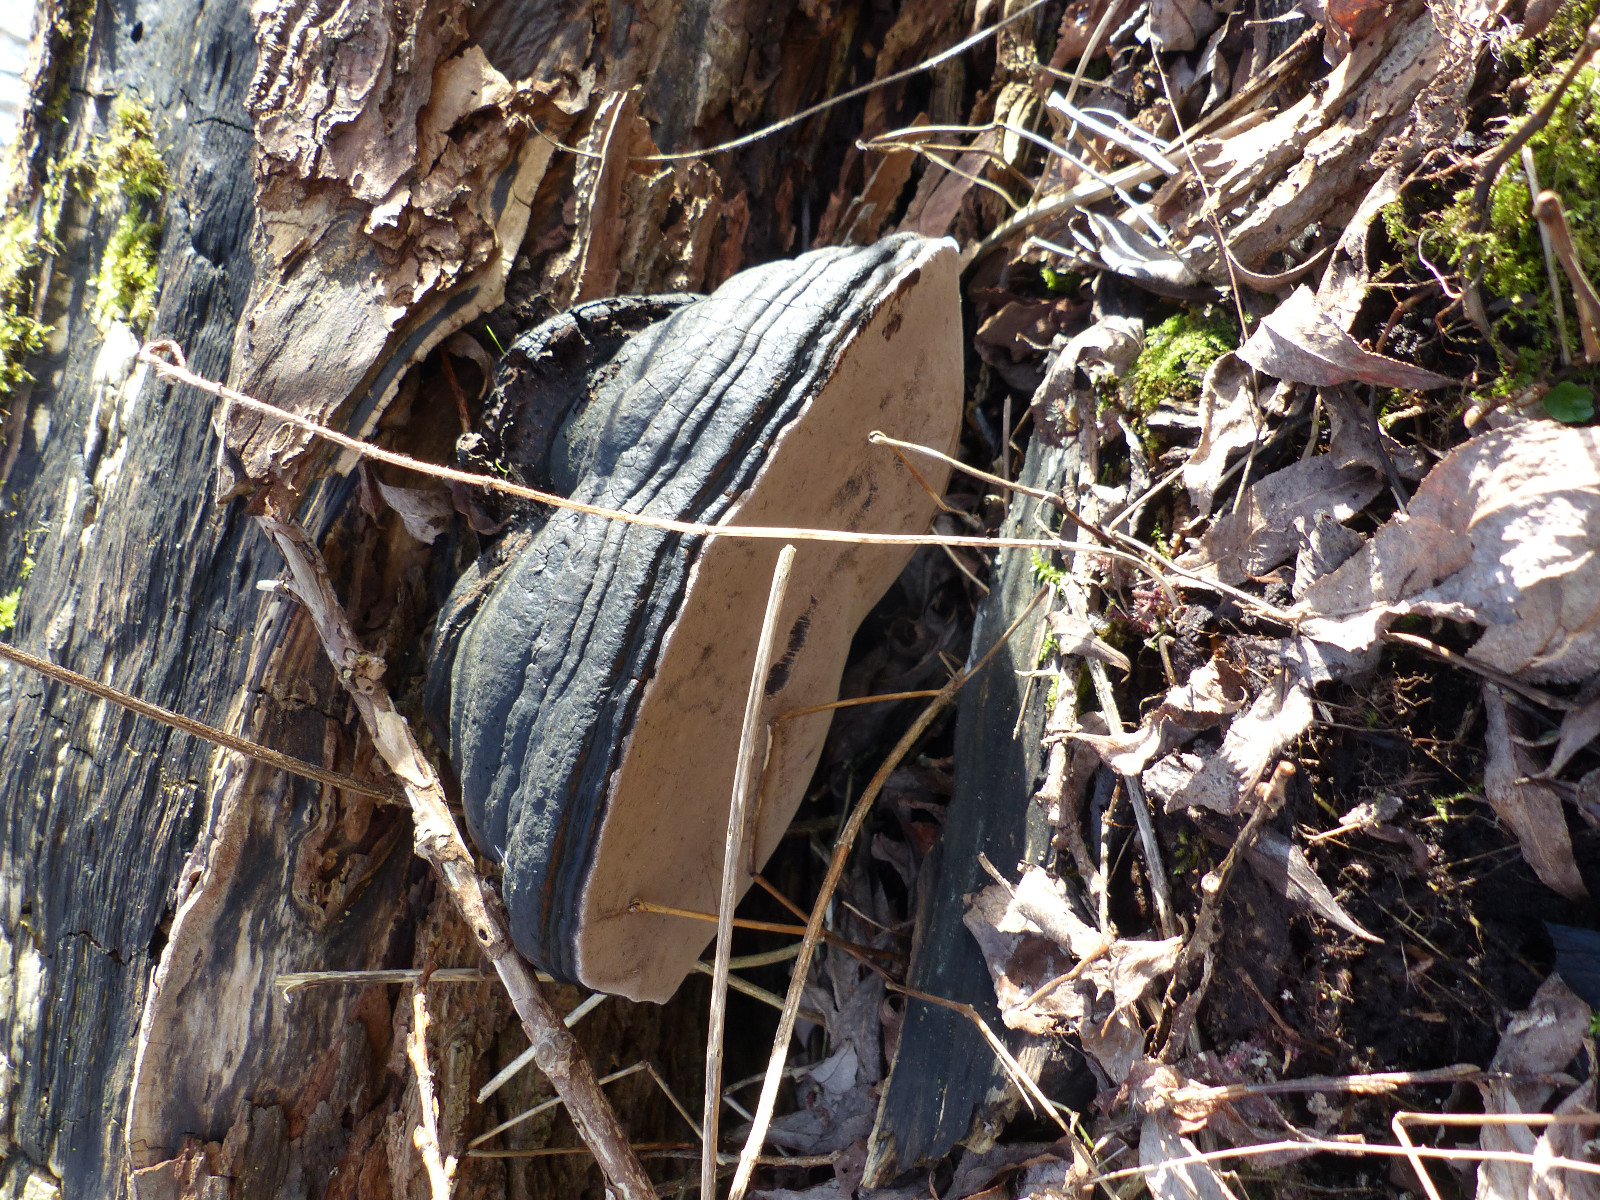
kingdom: Fungi
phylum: Basidiomycota
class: Agaricomycetes
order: Hymenochaetales
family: Hymenochaetaceae
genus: Phellinus
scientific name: Phellinus igniarius
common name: almindelig ildporesvamp
